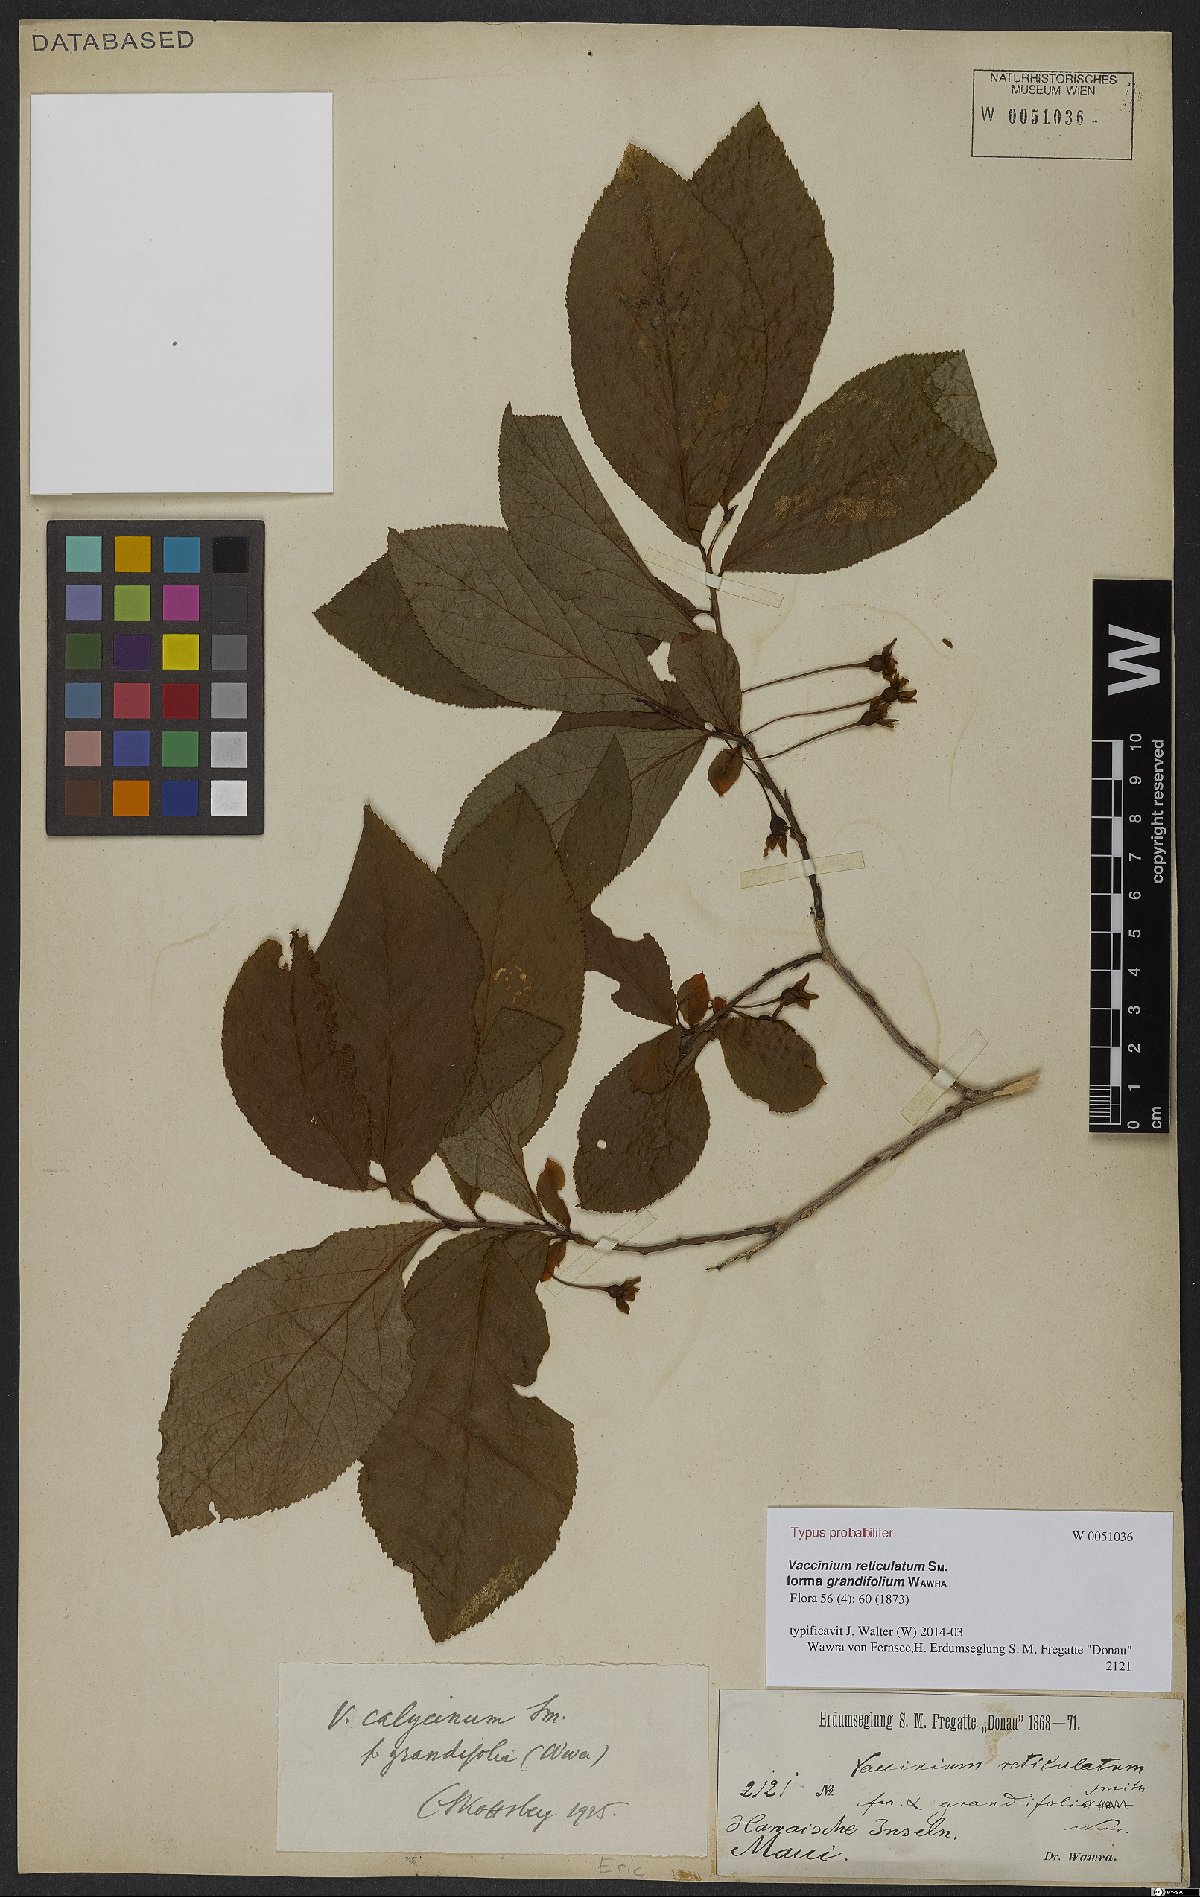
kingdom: Plantae
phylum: Tracheophyta
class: Magnoliopsida
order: Ericales
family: Ericaceae
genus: Vaccinium
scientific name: Vaccinium calycinum
